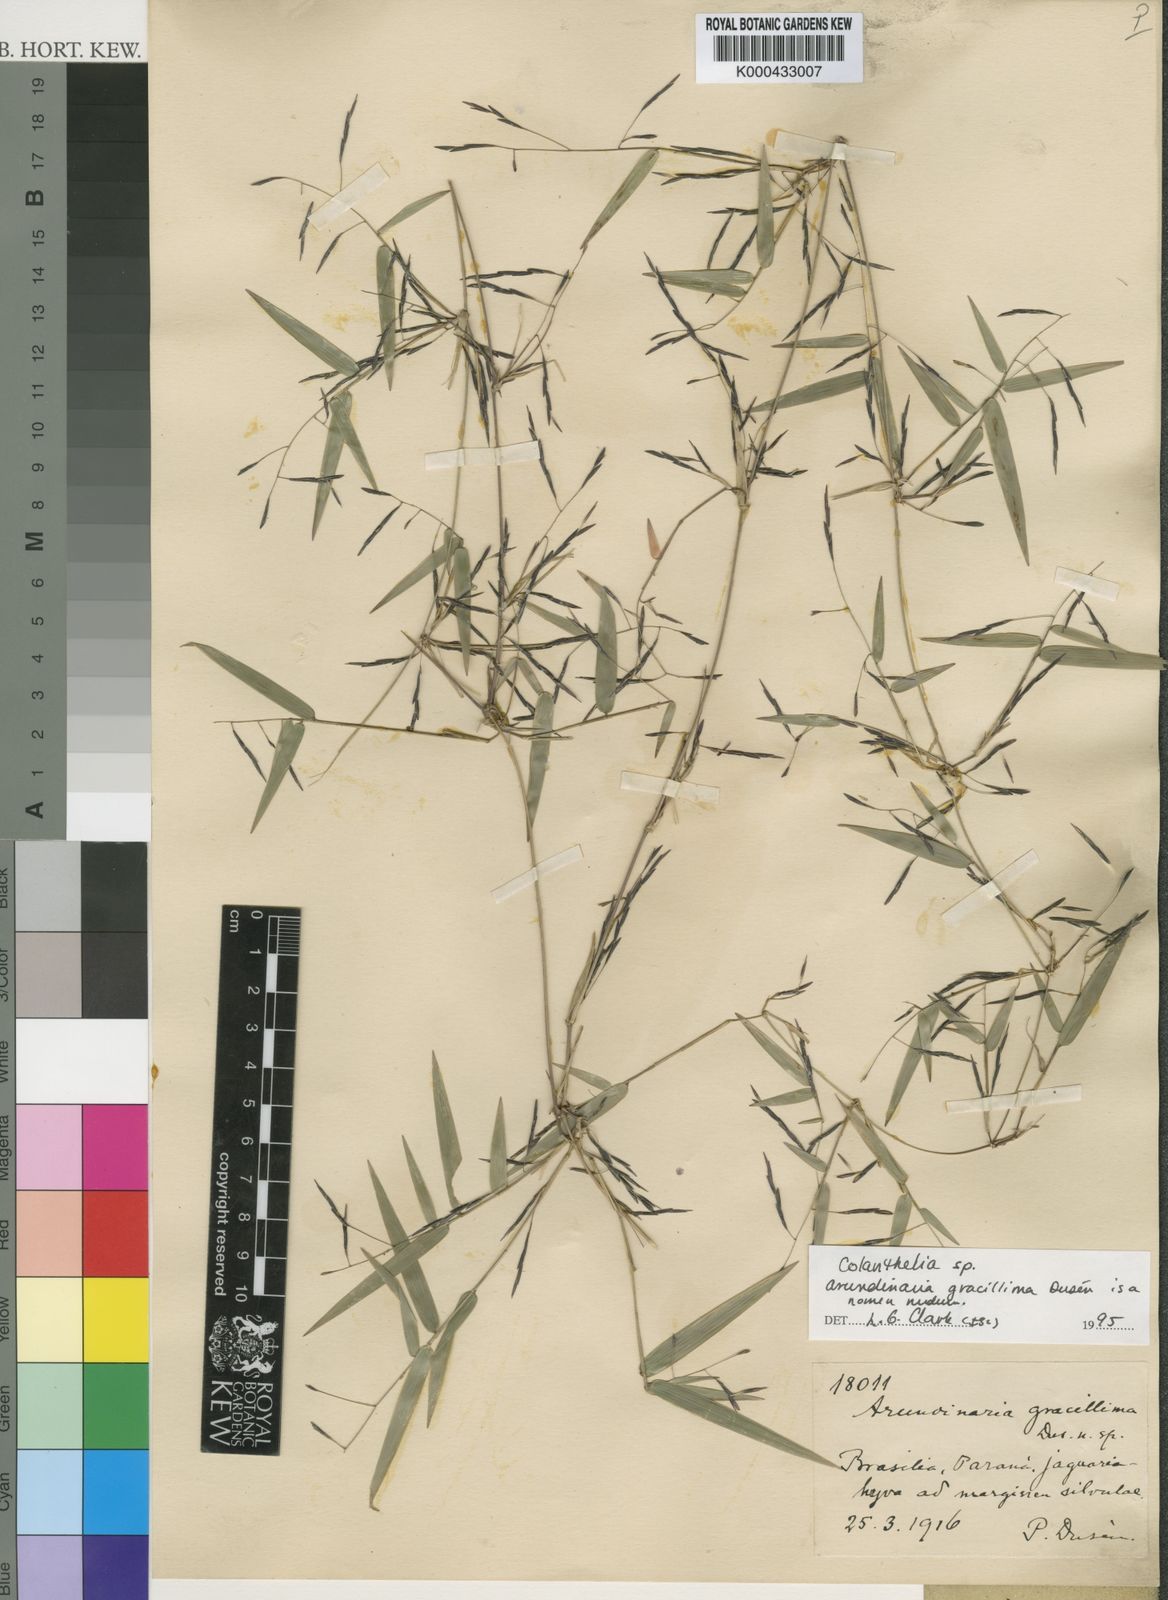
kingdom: Plantae
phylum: Tracheophyta
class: Liliopsida
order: Poales
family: Poaceae
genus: Colanthelia
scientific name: Colanthelia
